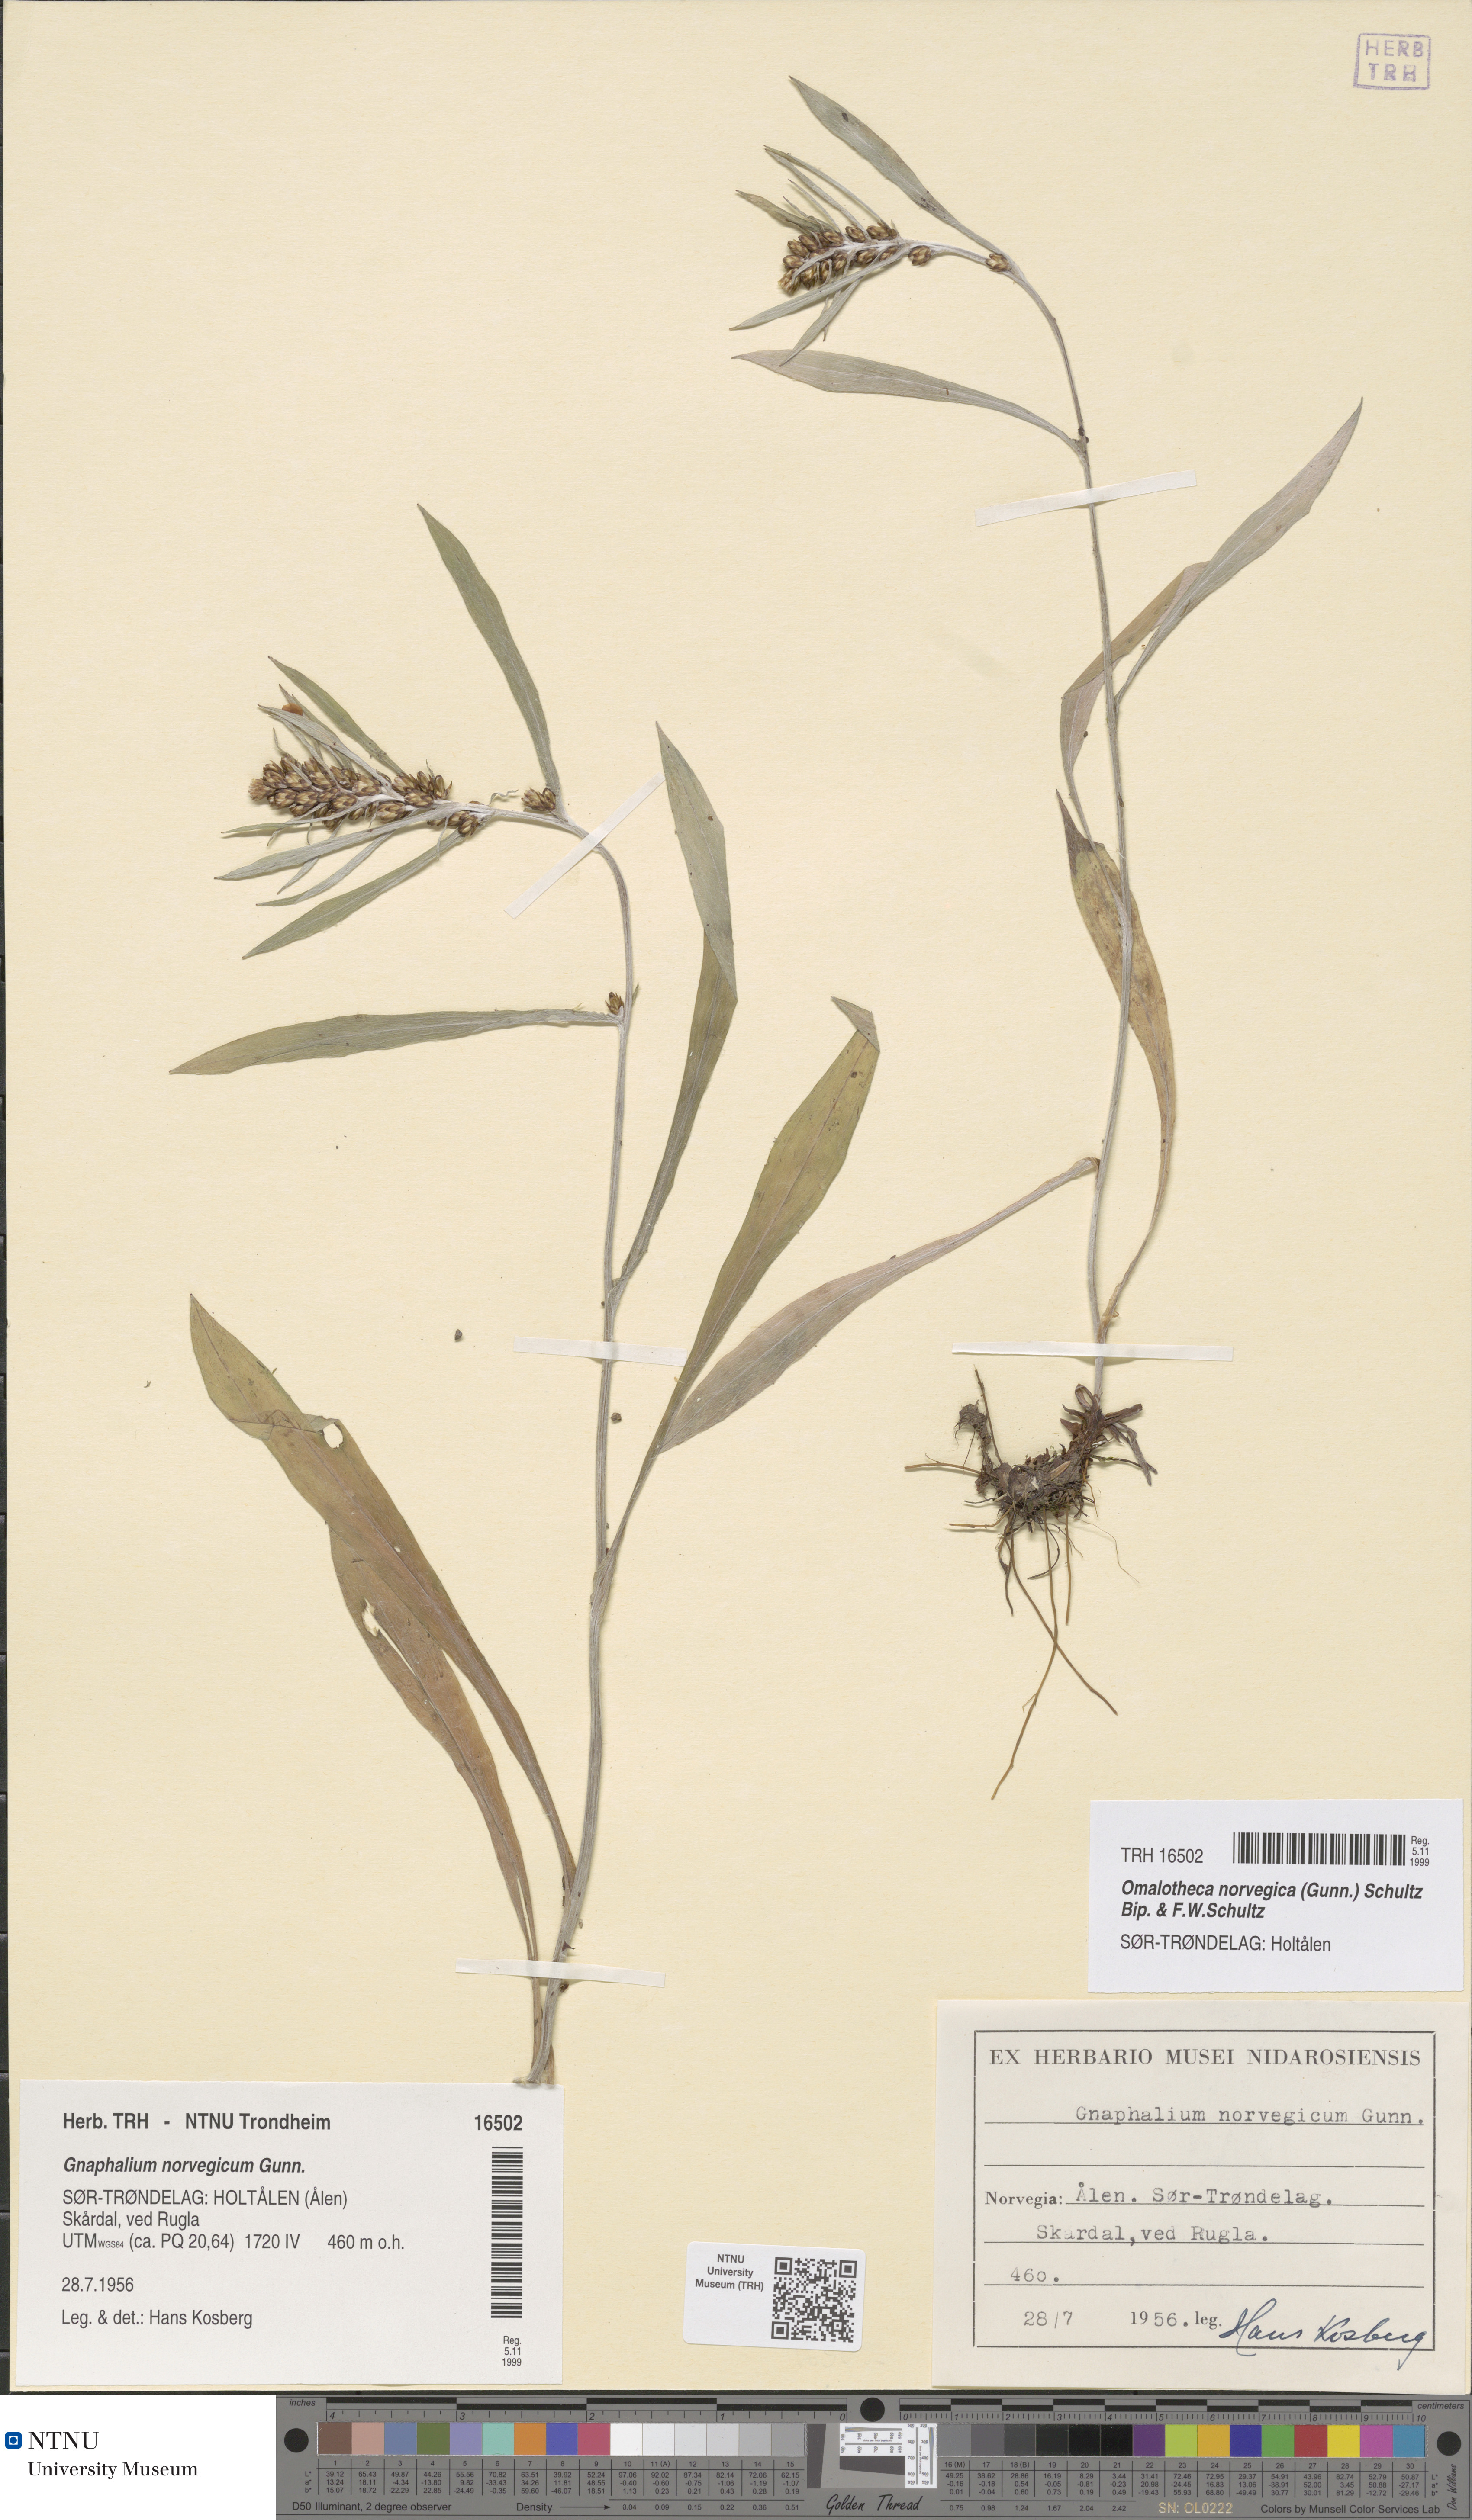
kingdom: Plantae
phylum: Tracheophyta
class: Magnoliopsida
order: Asterales
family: Asteraceae
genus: Omalotheca
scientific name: Omalotheca norvegica
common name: Norwegian arctic-cudweed
